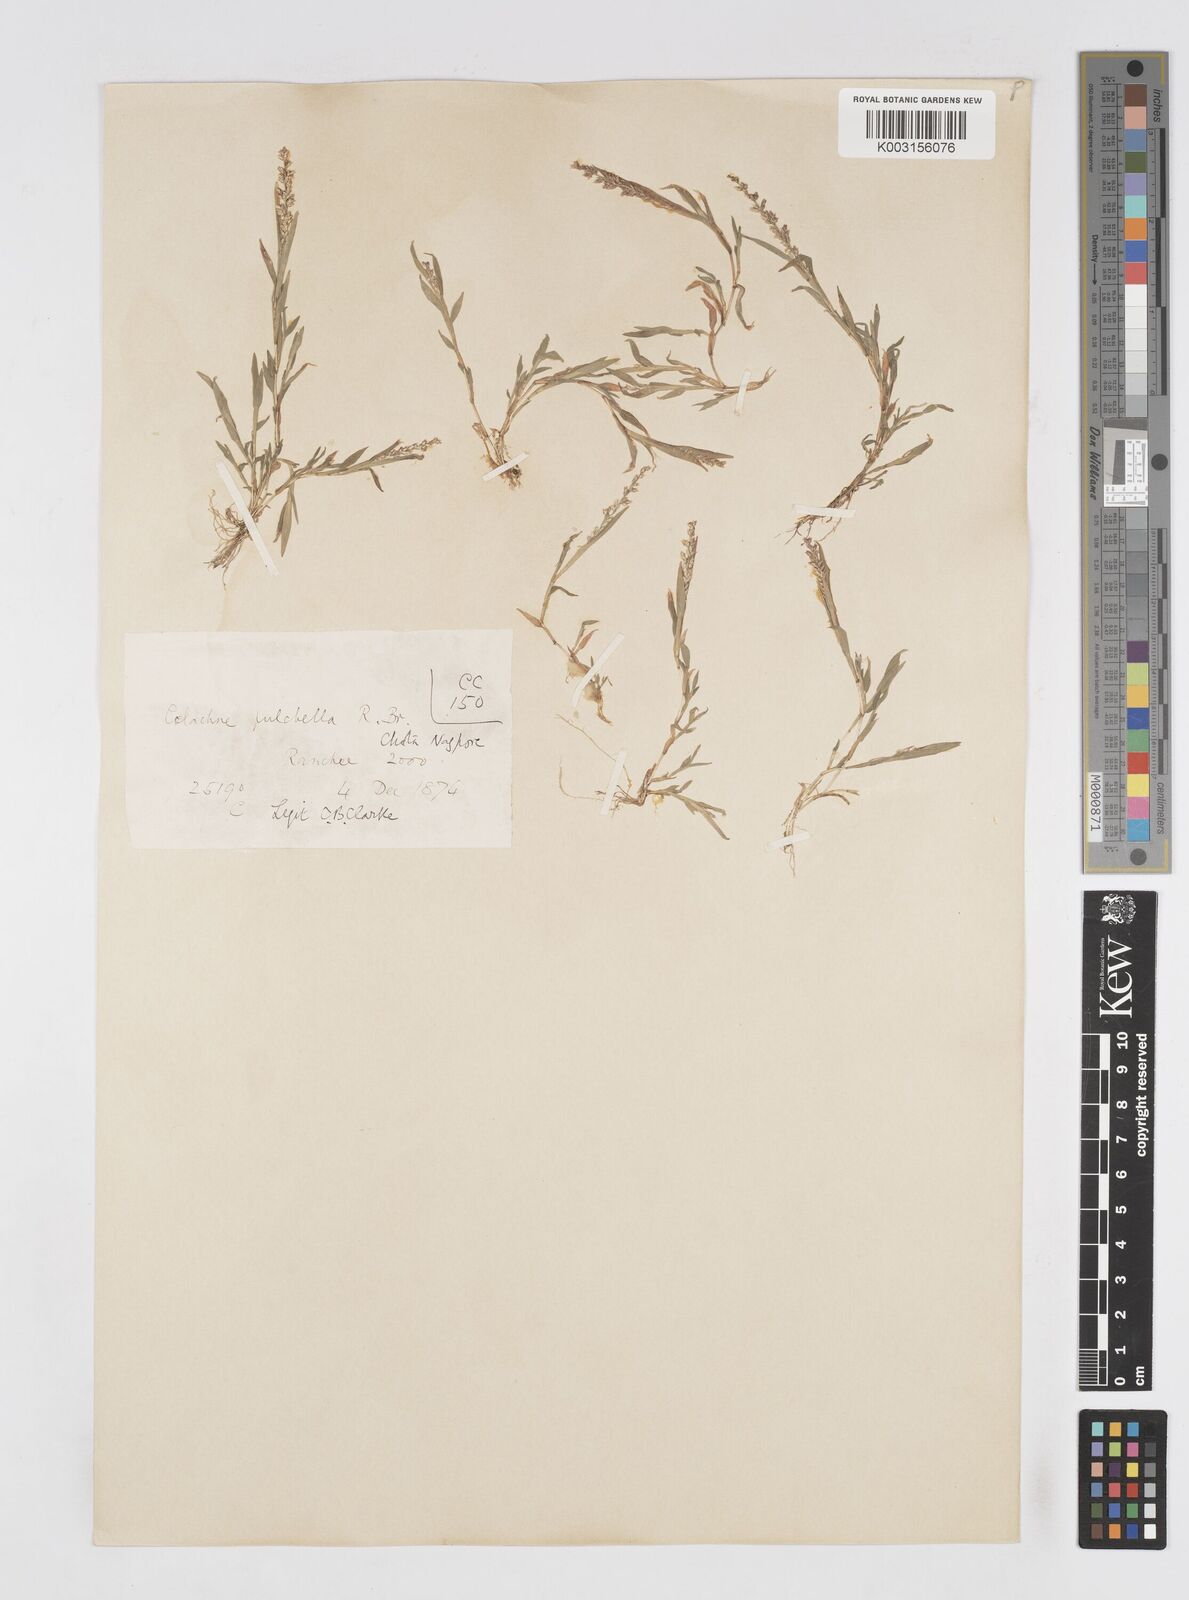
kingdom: Plantae
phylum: Tracheophyta
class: Liliopsida
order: Poales
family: Poaceae
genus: Coelachne
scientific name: Coelachne simpliciuscula
